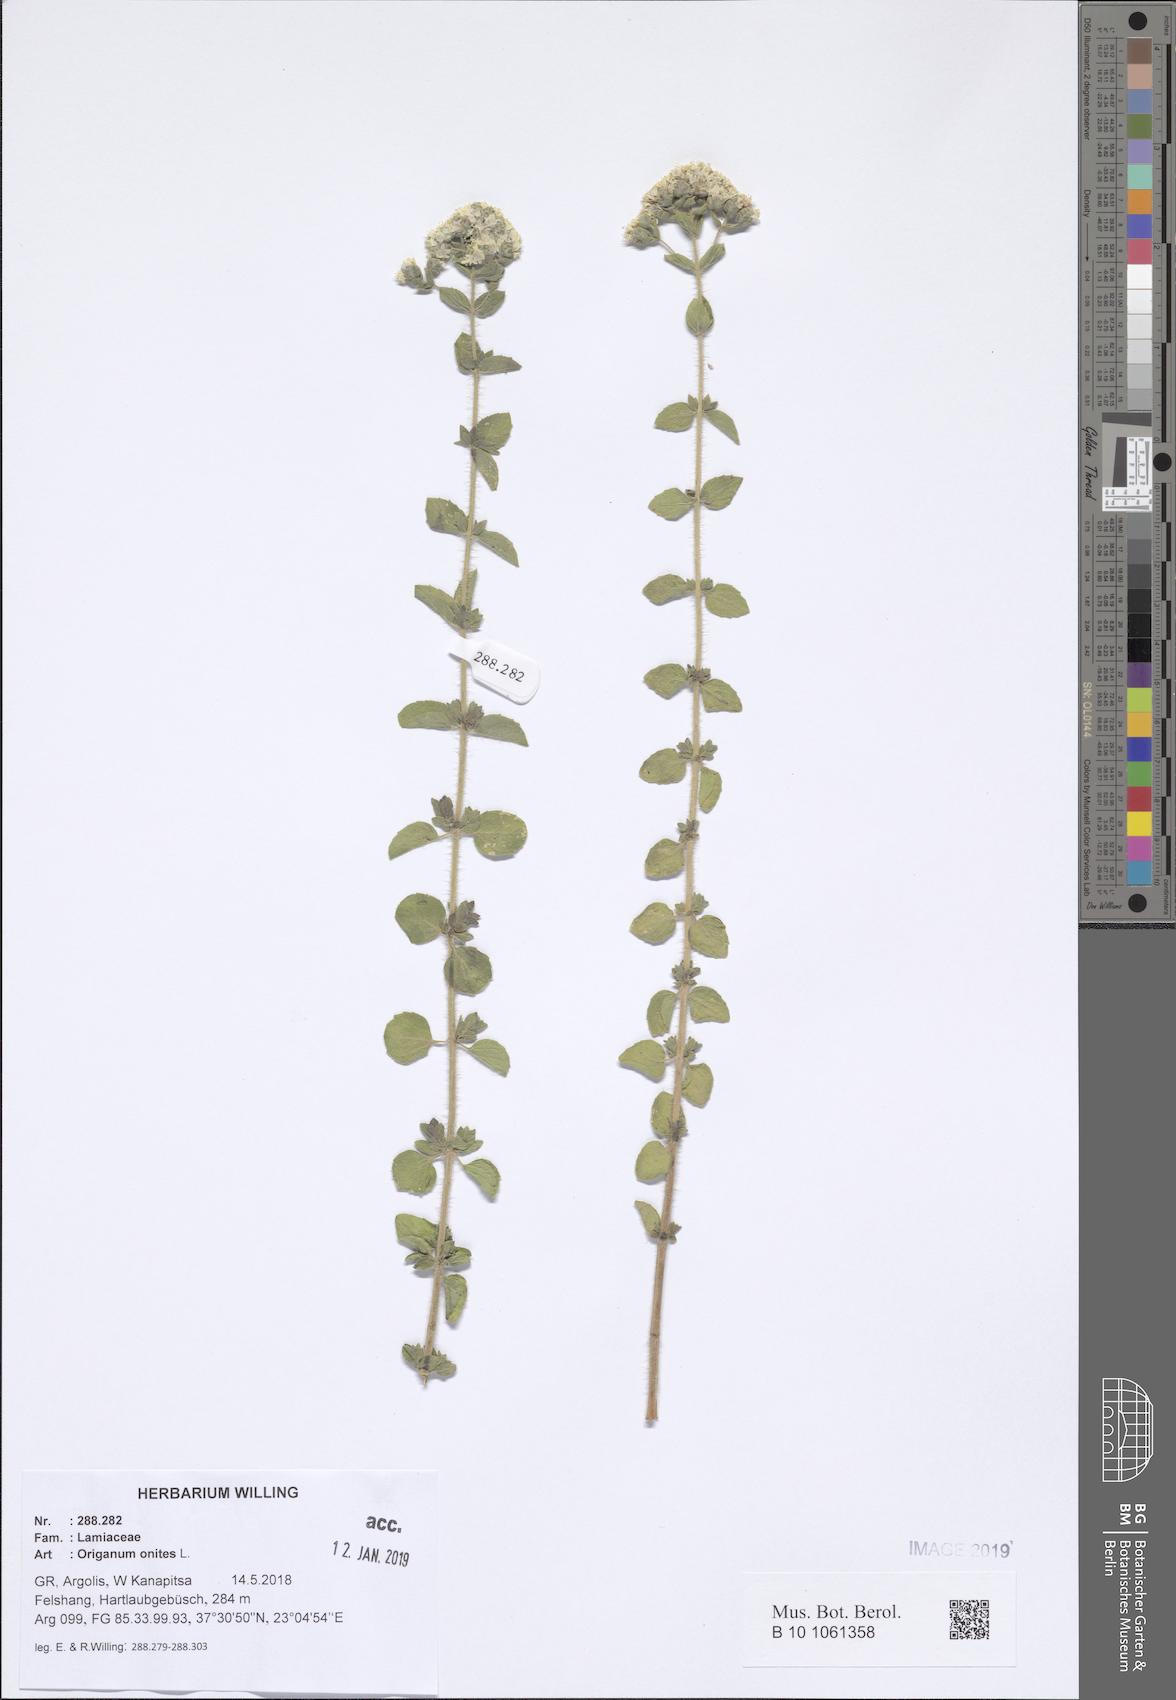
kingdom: Plantae
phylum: Tracheophyta
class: Magnoliopsida
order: Lamiales
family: Lamiaceae
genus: Origanum
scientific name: Origanum onites
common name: Turkish oregano
